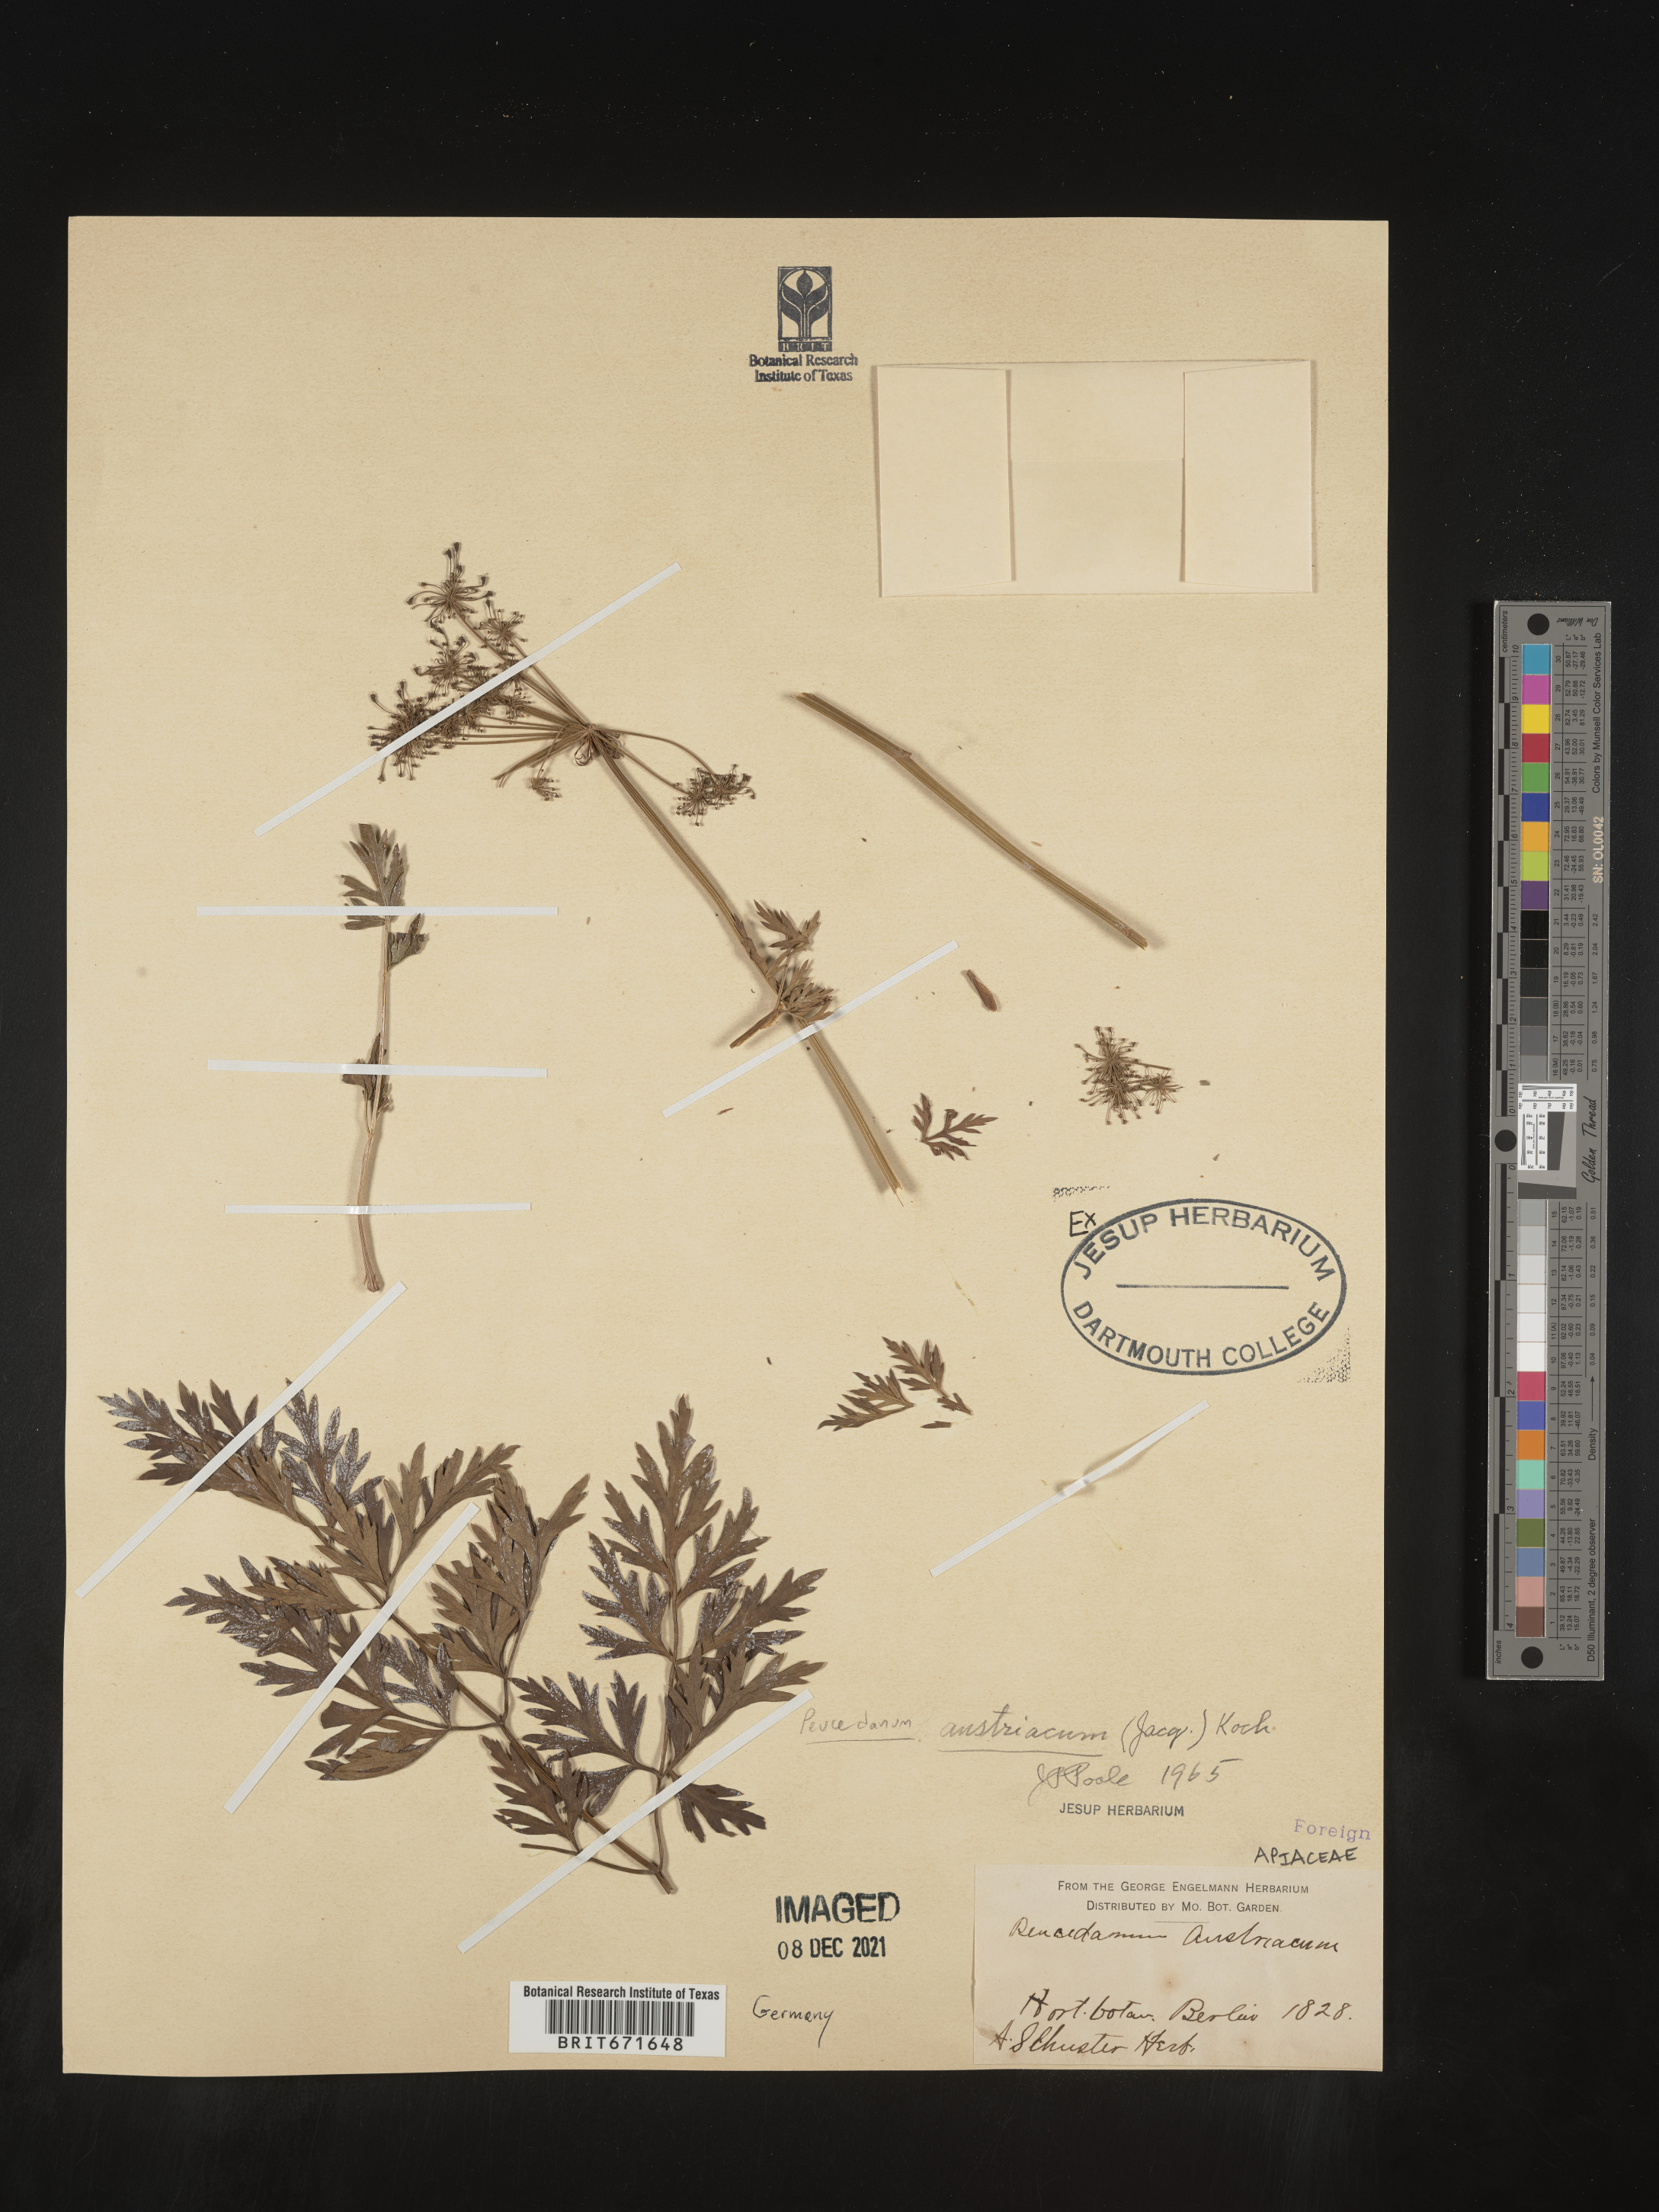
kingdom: Plantae
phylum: Tracheophyta
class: Magnoliopsida
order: Apiales
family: Apiaceae
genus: Peucedanum
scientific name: Peucedanum
